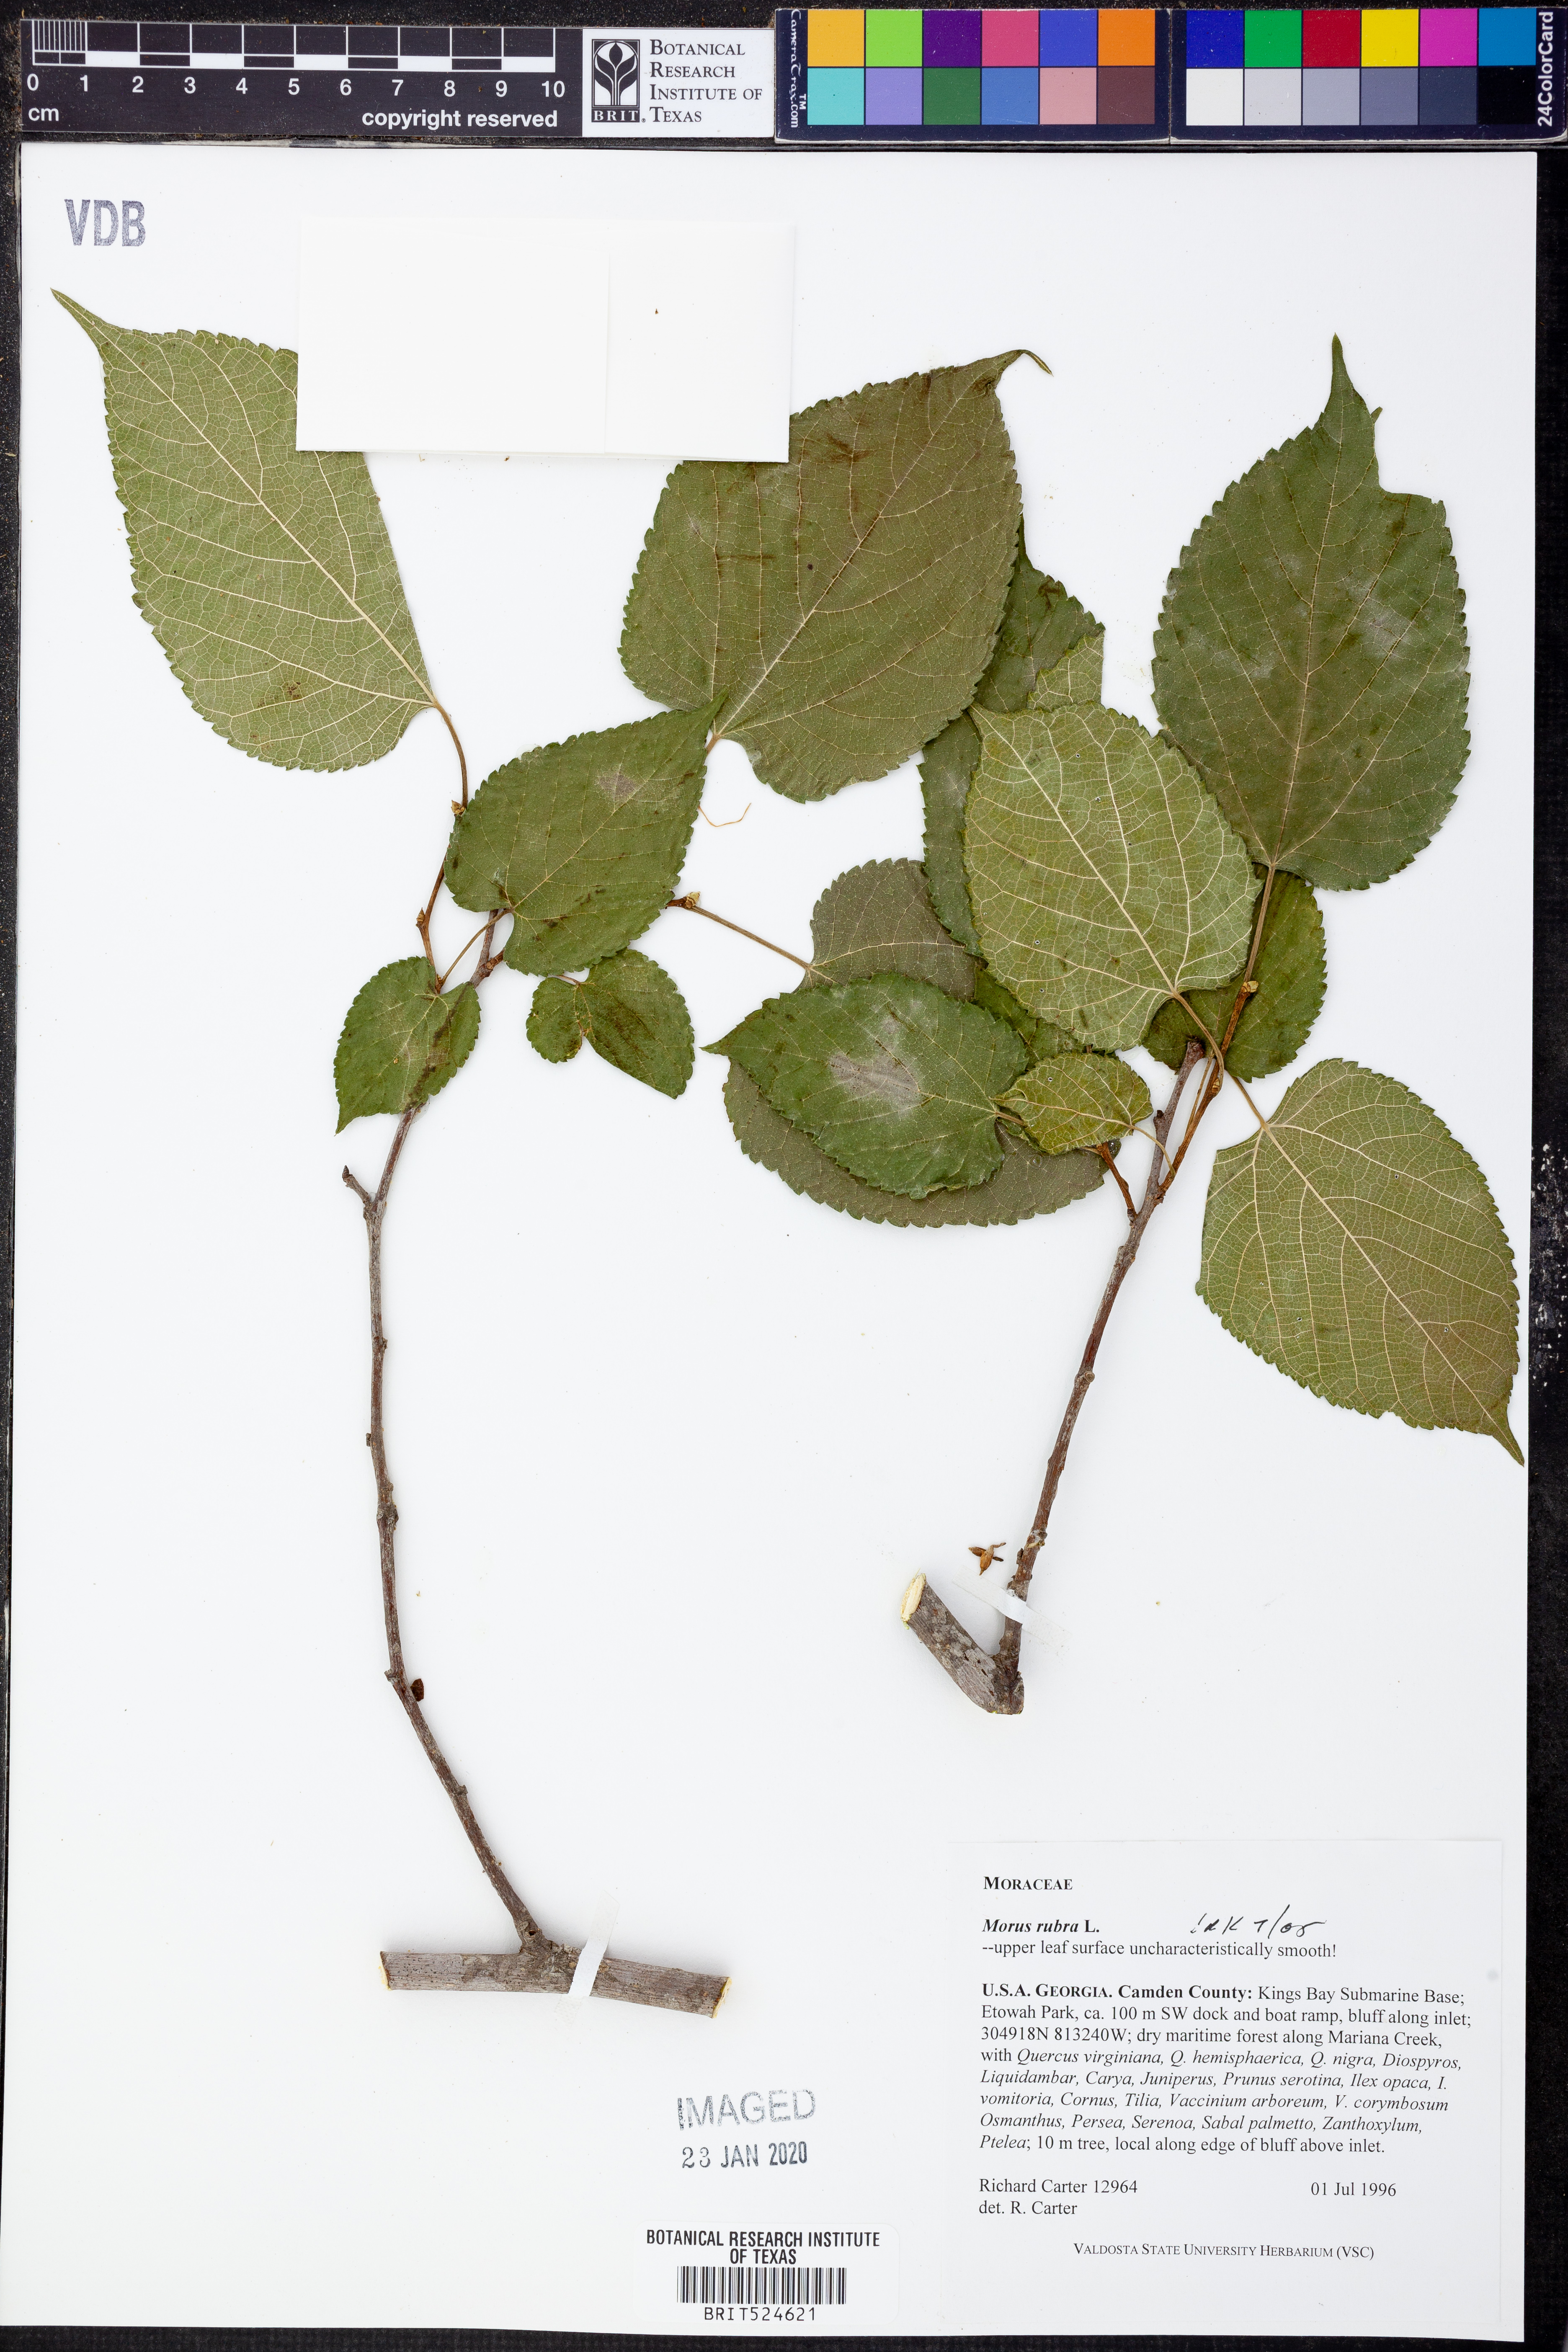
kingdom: Plantae
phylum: Tracheophyta
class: Magnoliopsida
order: Rosales
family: Moraceae
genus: Morus
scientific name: Morus rubra
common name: Red mulberry
